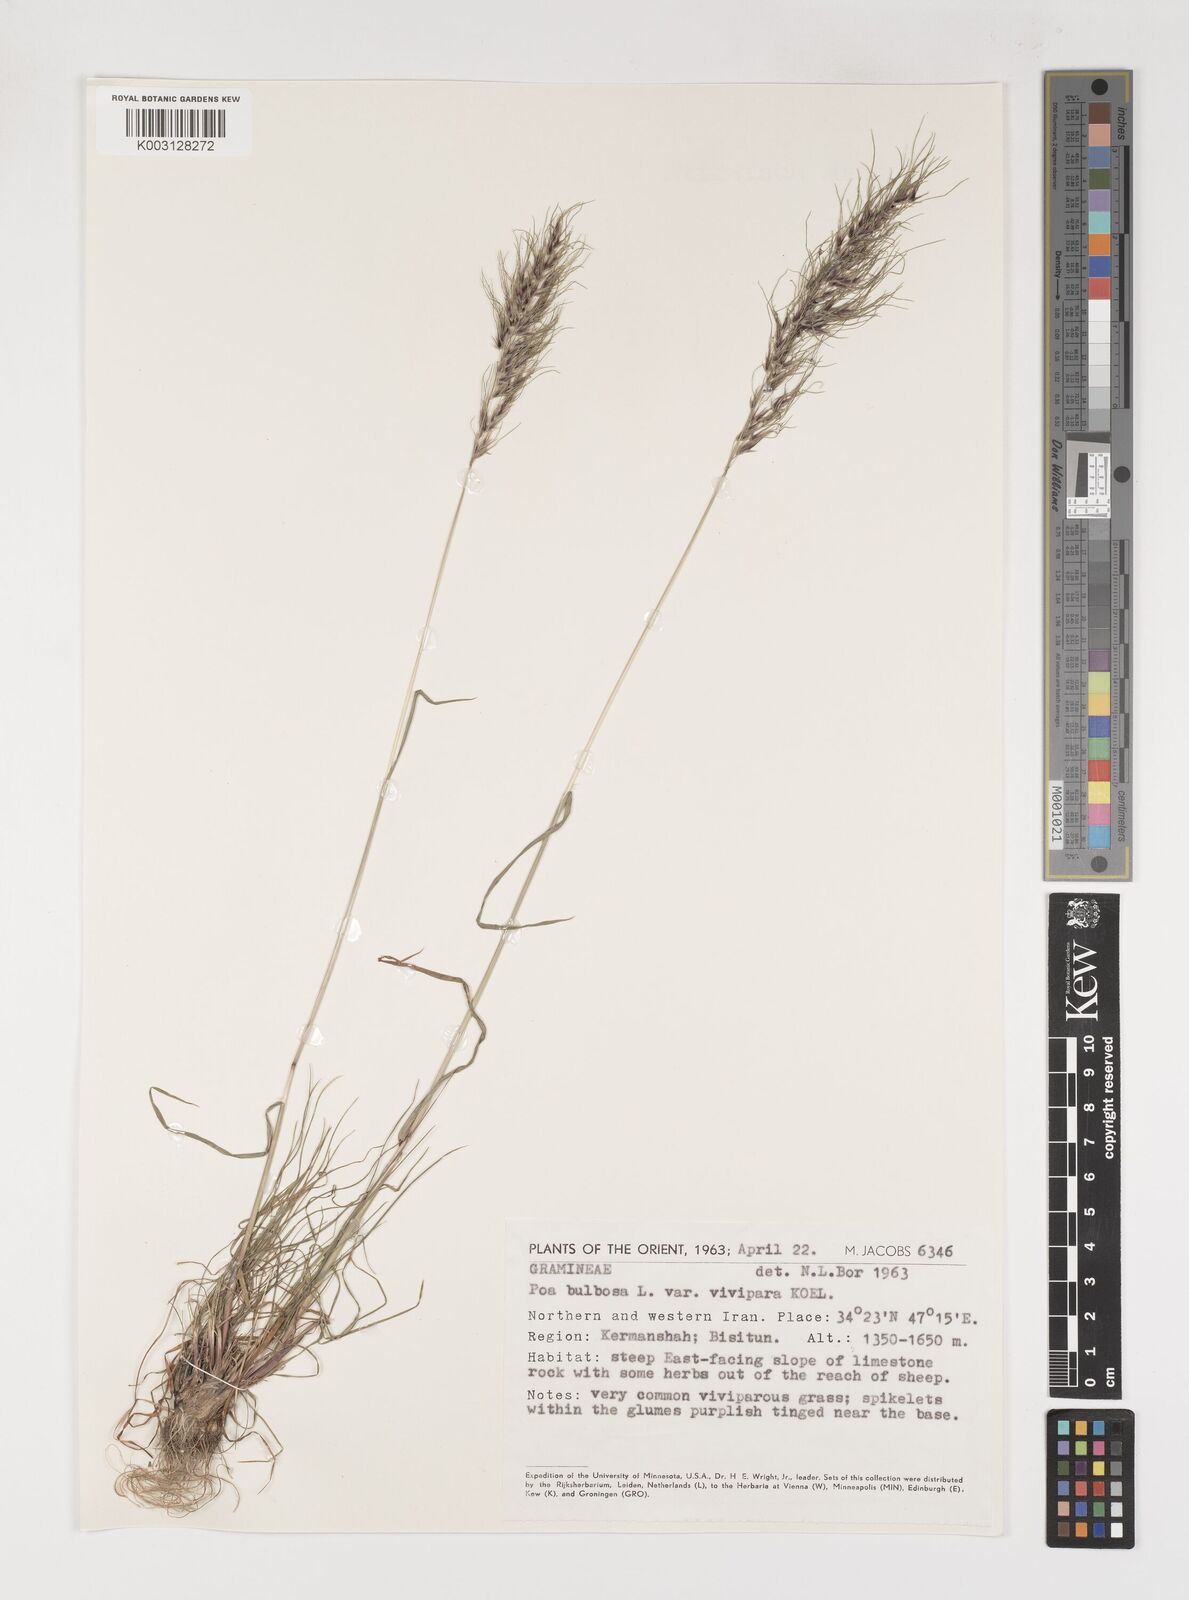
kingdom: Plantae
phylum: Tracheophyta
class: Liliopsida
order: Poales
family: Poaceae
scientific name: Poaceae
